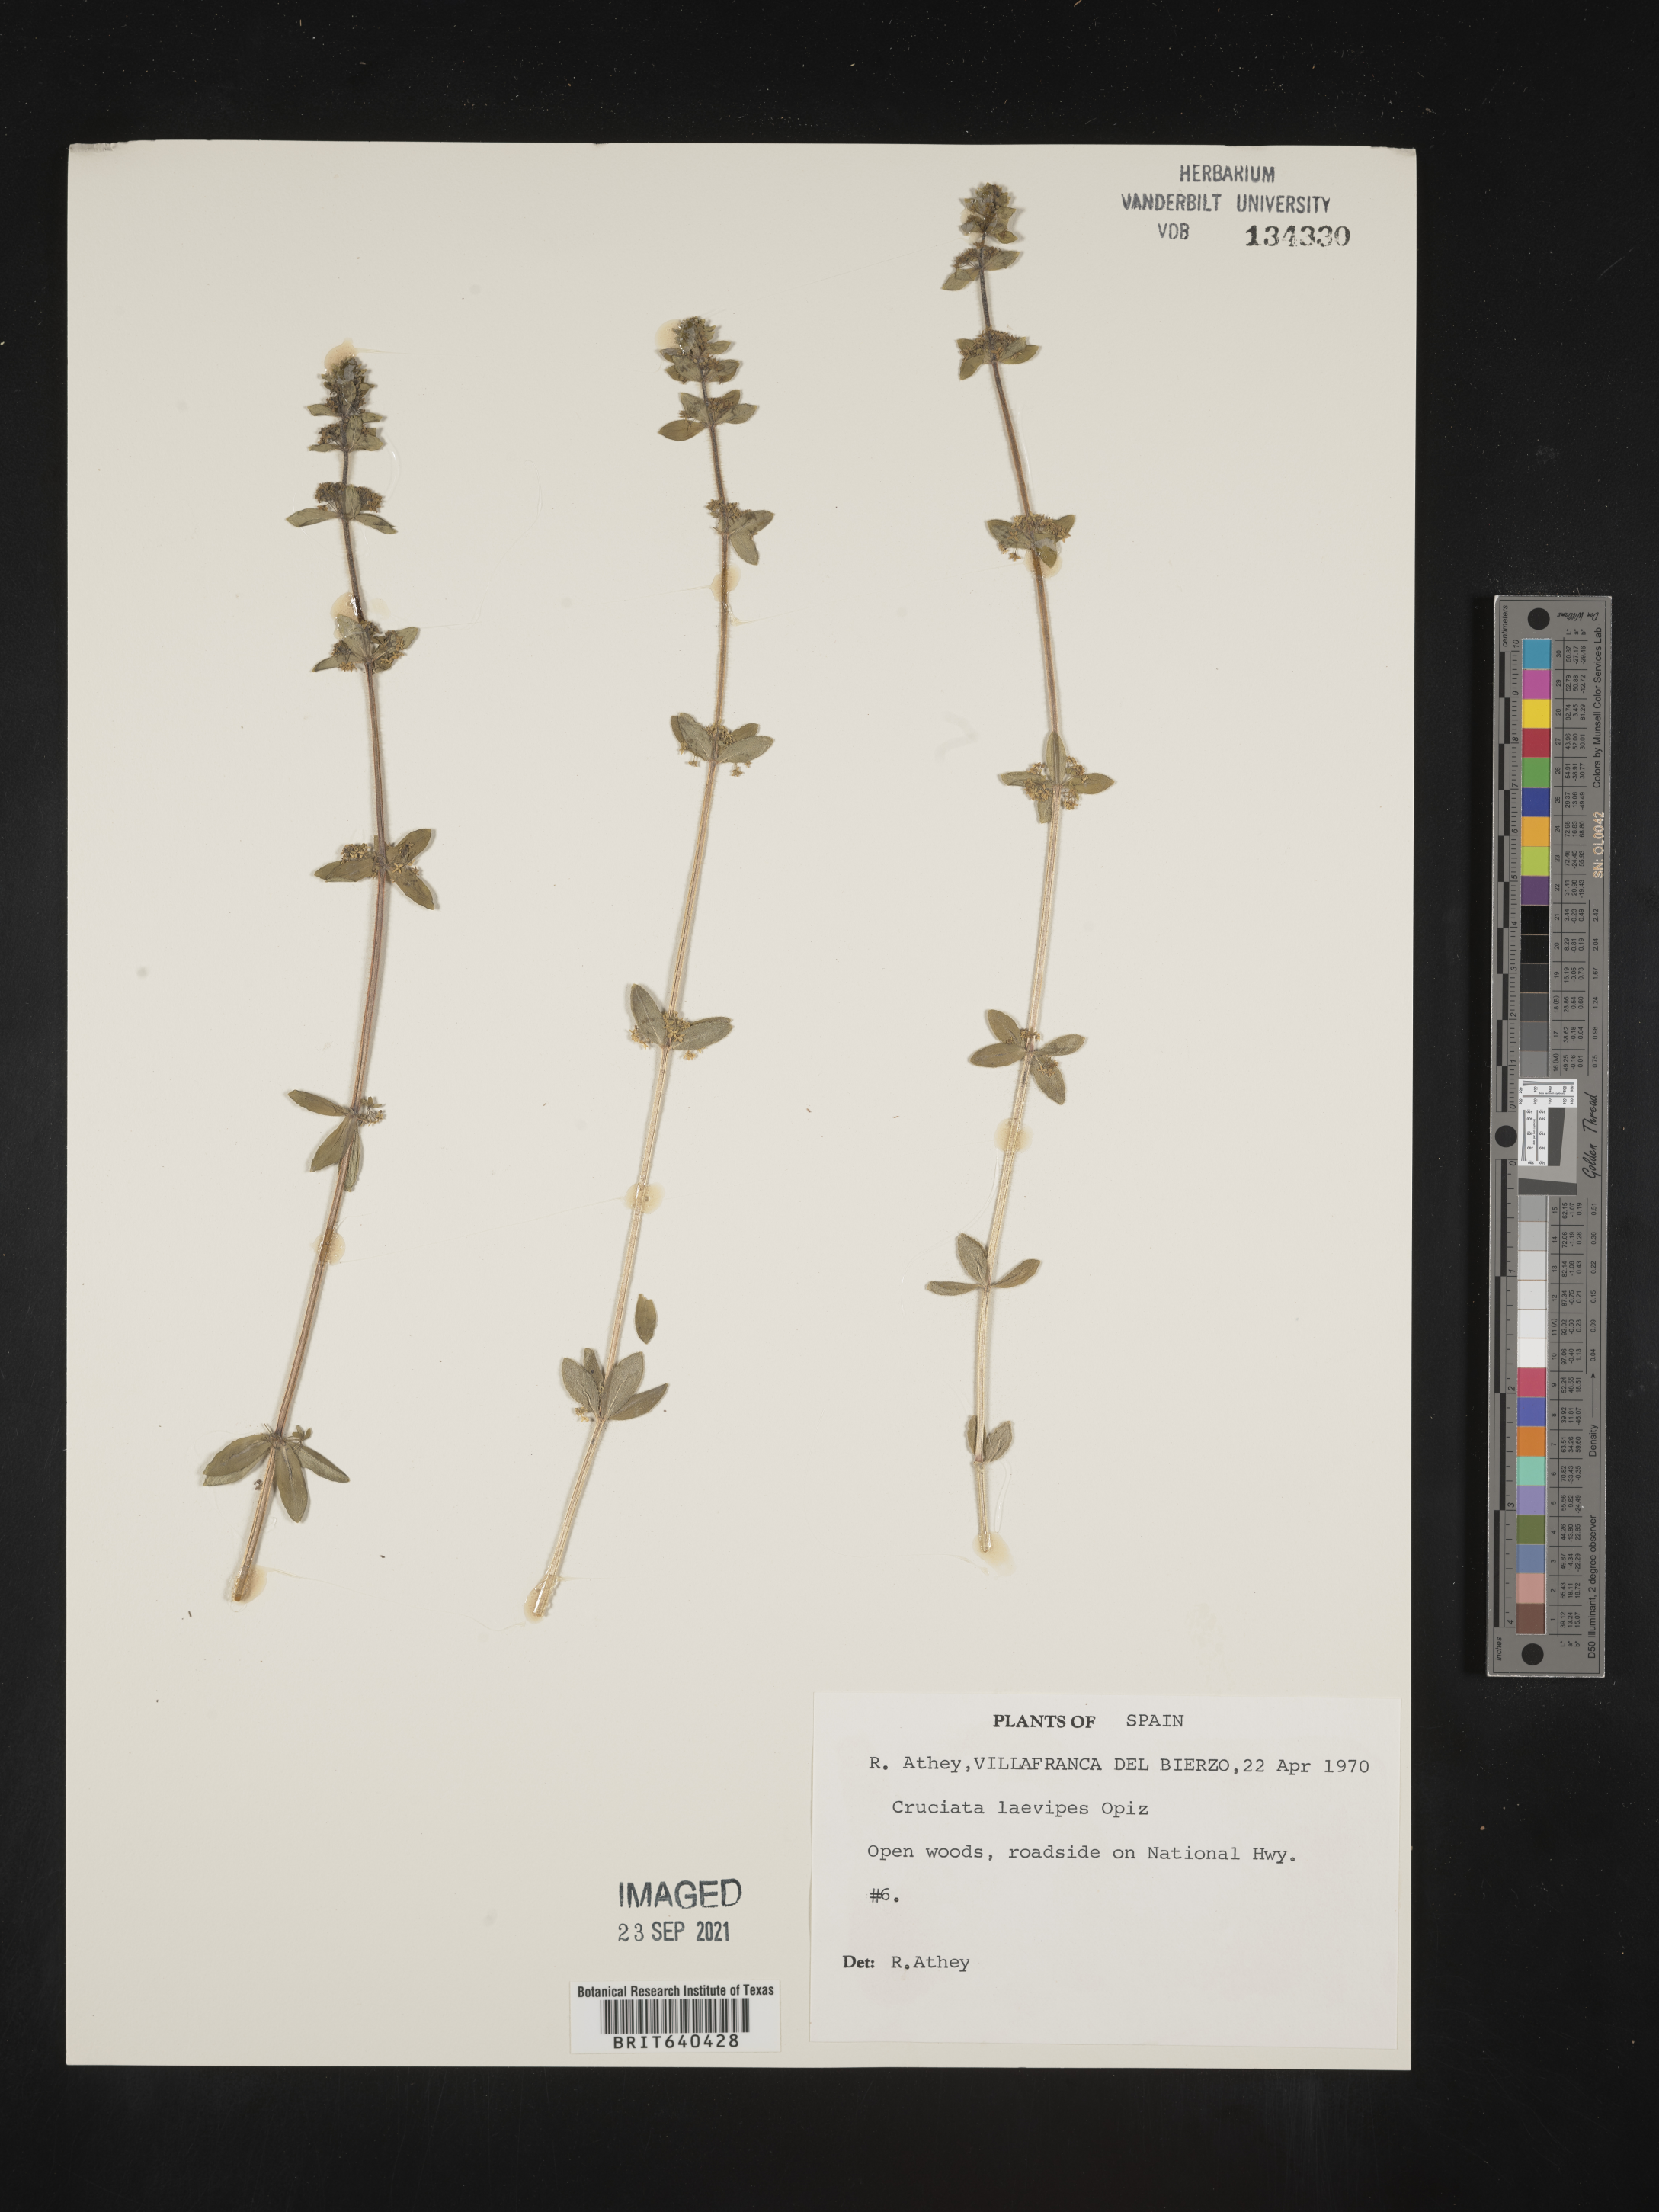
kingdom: Plantae
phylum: Tracheophyta
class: Magnoliopsida
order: Gentianales
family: Rubiaceae
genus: Cruciata
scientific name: Cruciata
